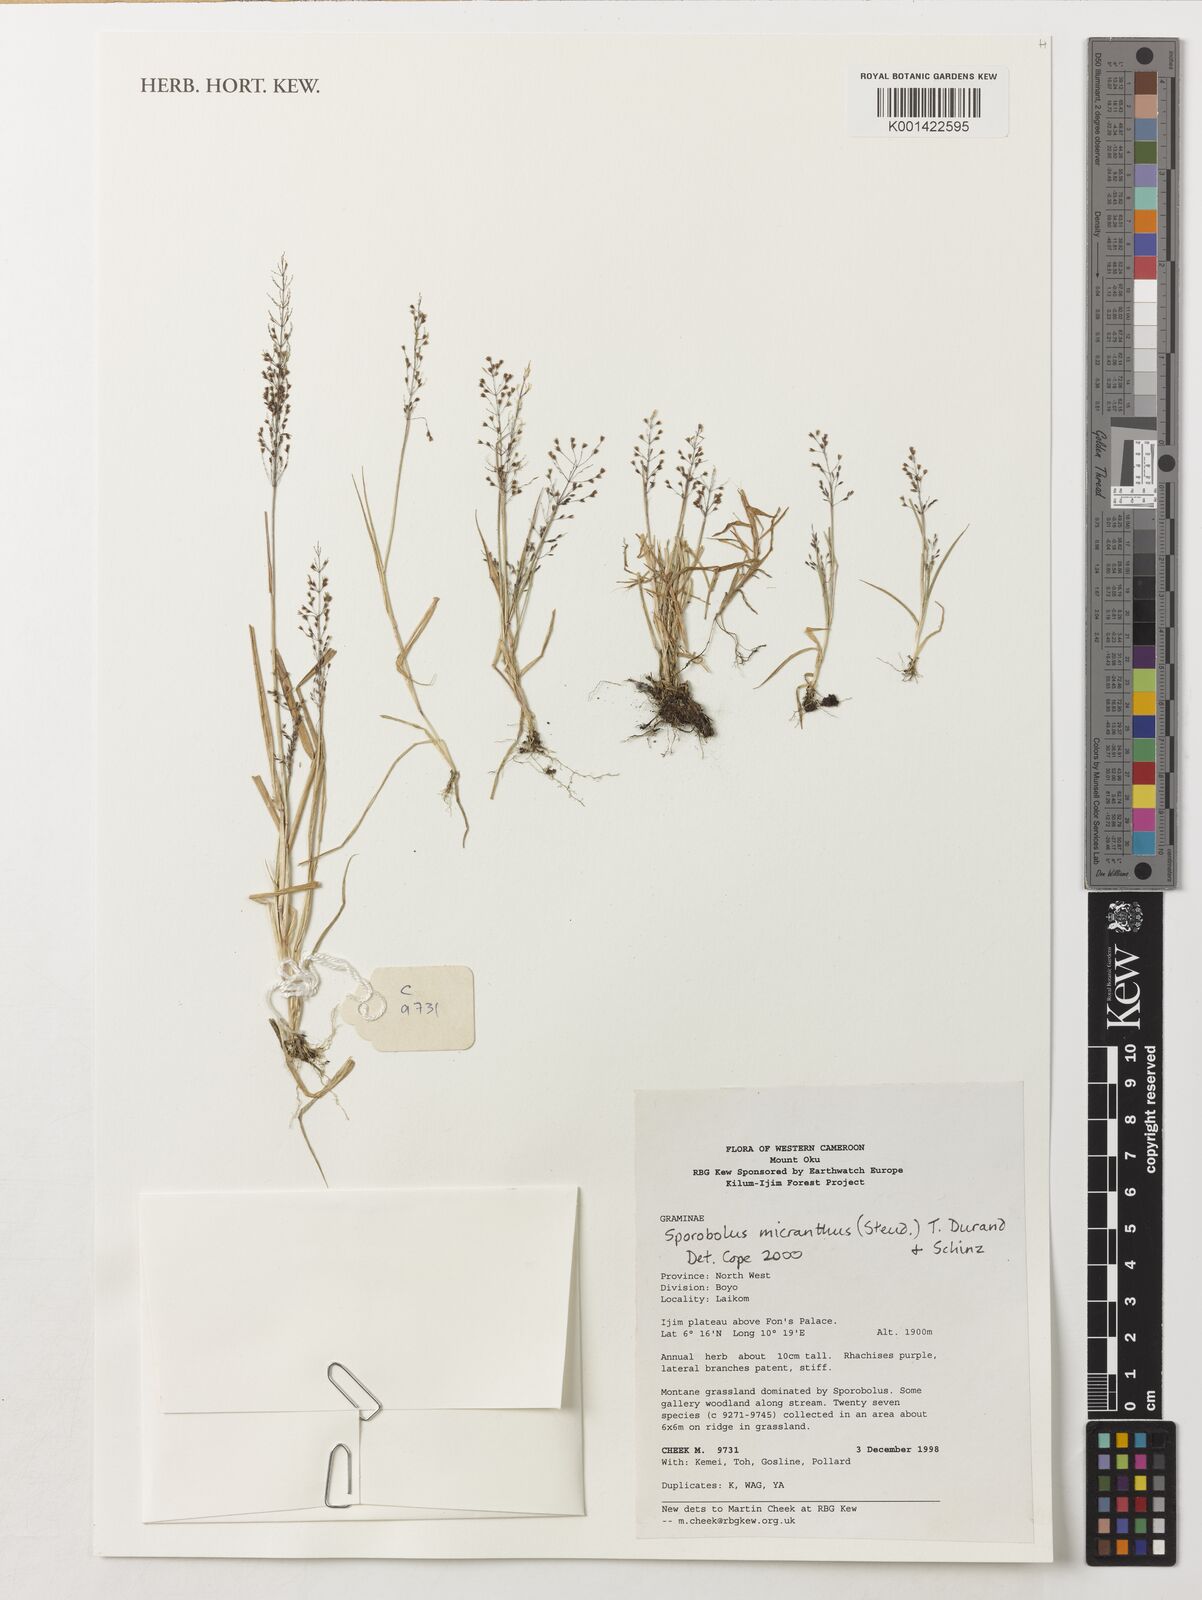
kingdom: Plantae
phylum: Tracheophyta
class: Liliopsida
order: Poales
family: Poaceae
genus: Sporobolus
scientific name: Sporobolus micranthus
